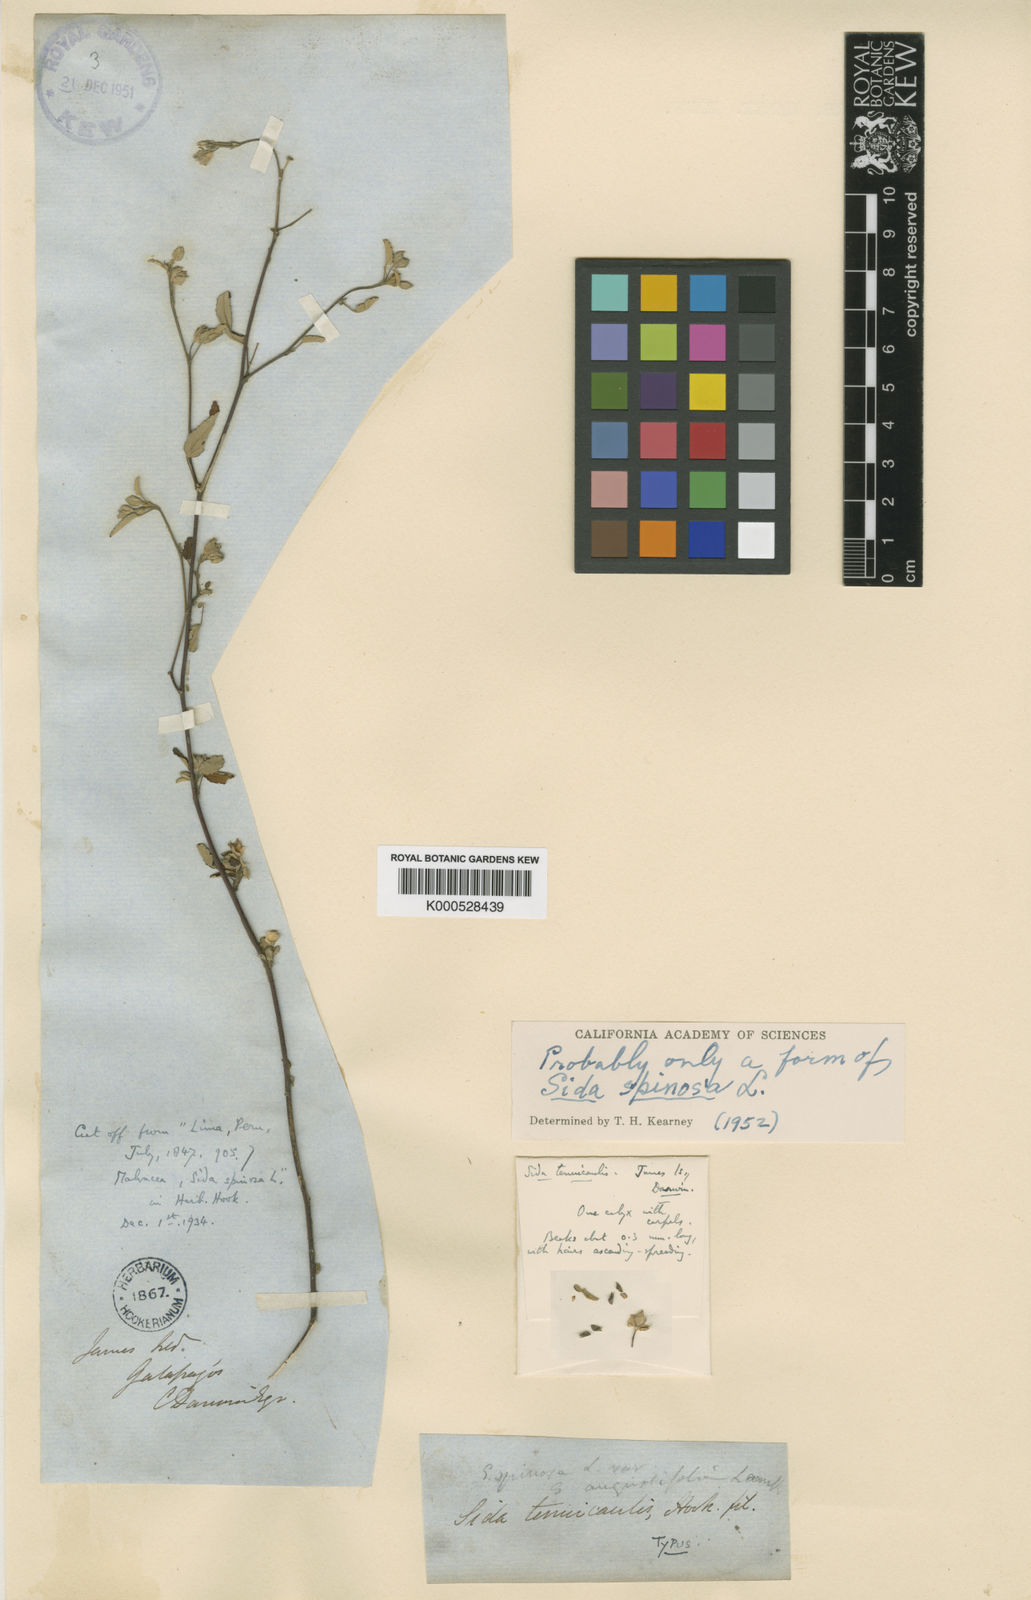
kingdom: Plantae
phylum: Tracheophyta
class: Magnoliopsida
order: Malvales
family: Malvaceae
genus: Sida
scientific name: Sida spinosa
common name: Prickly fanpetals
